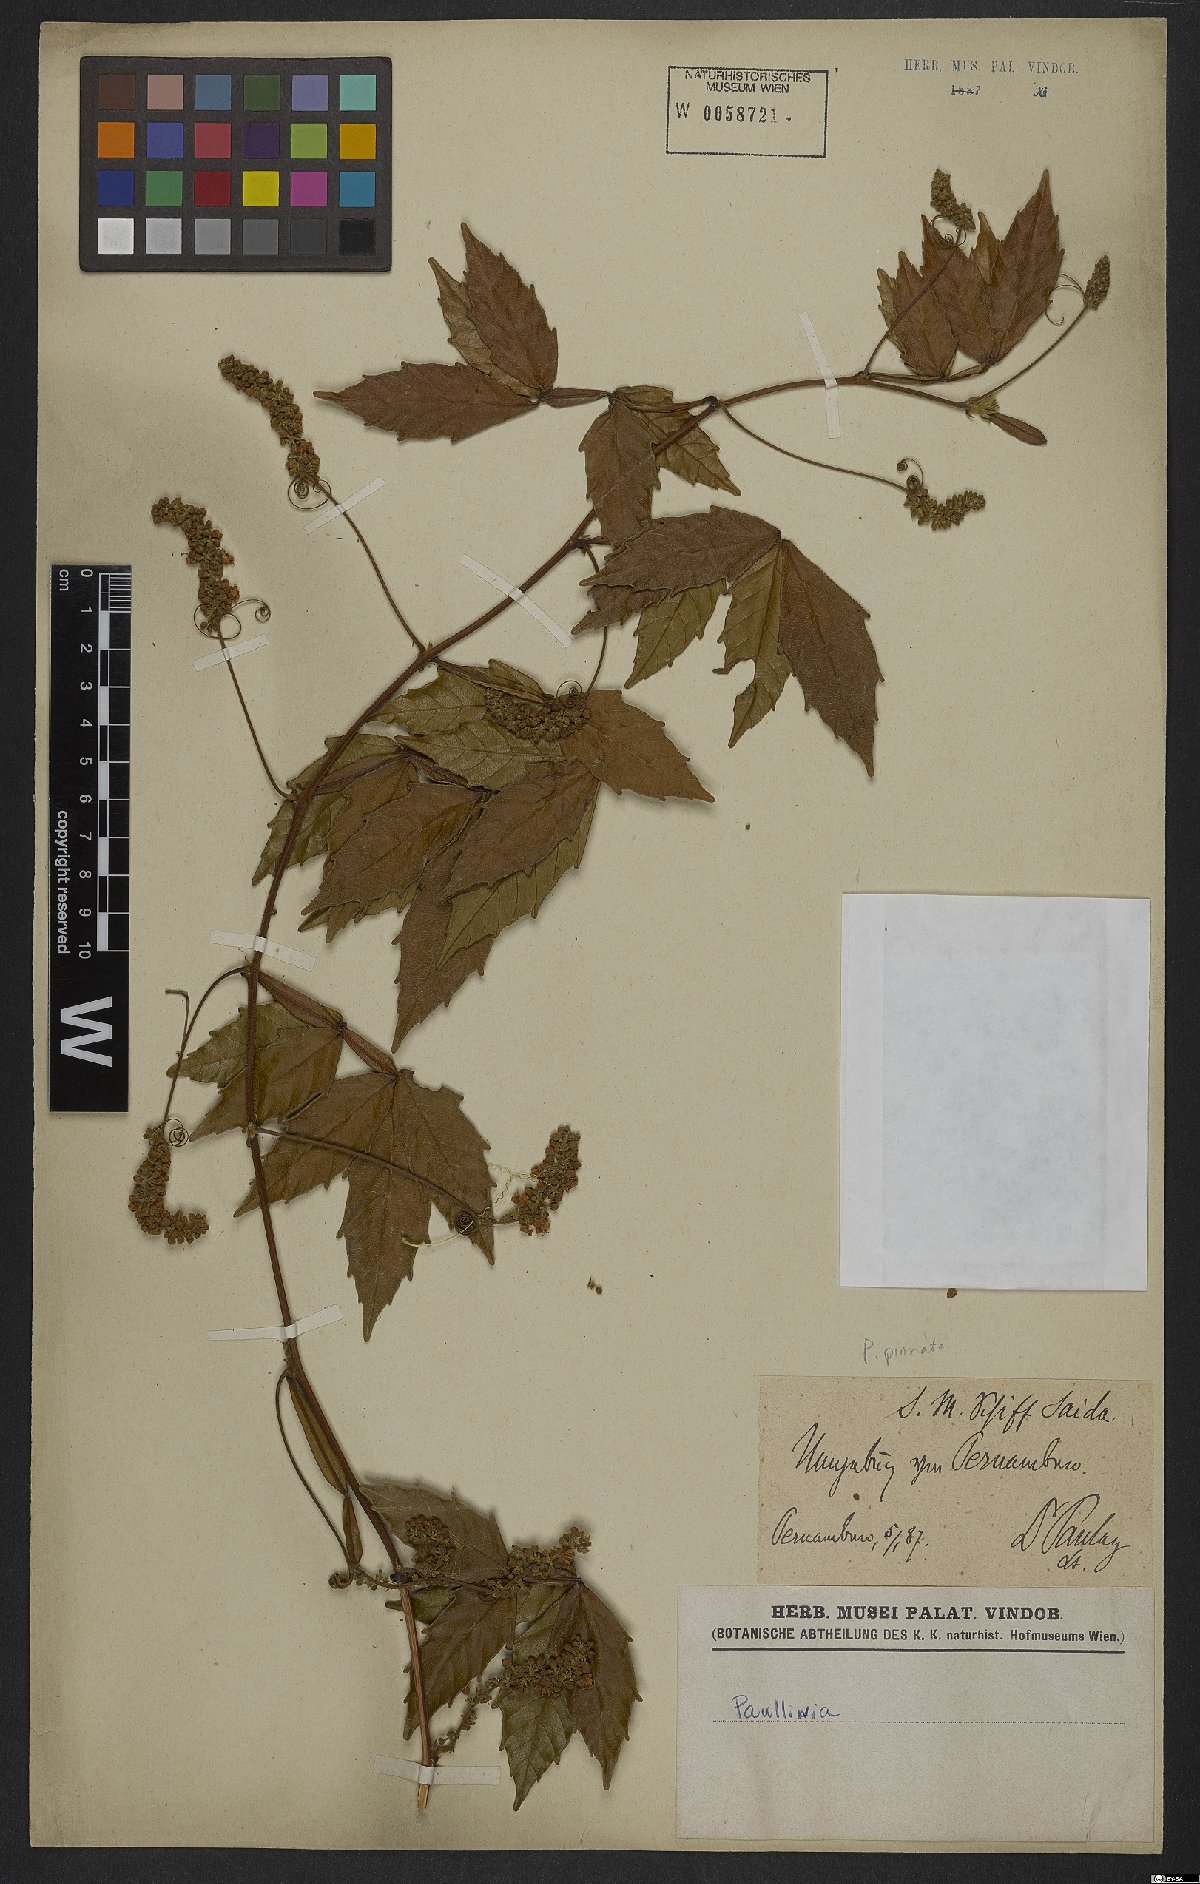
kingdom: Plantae
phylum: Tracheophyta
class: Magnoliopsida
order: Sapindales
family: Sapindaceae
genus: Paullinia
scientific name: Paullinia pinnata
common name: Barbasco
